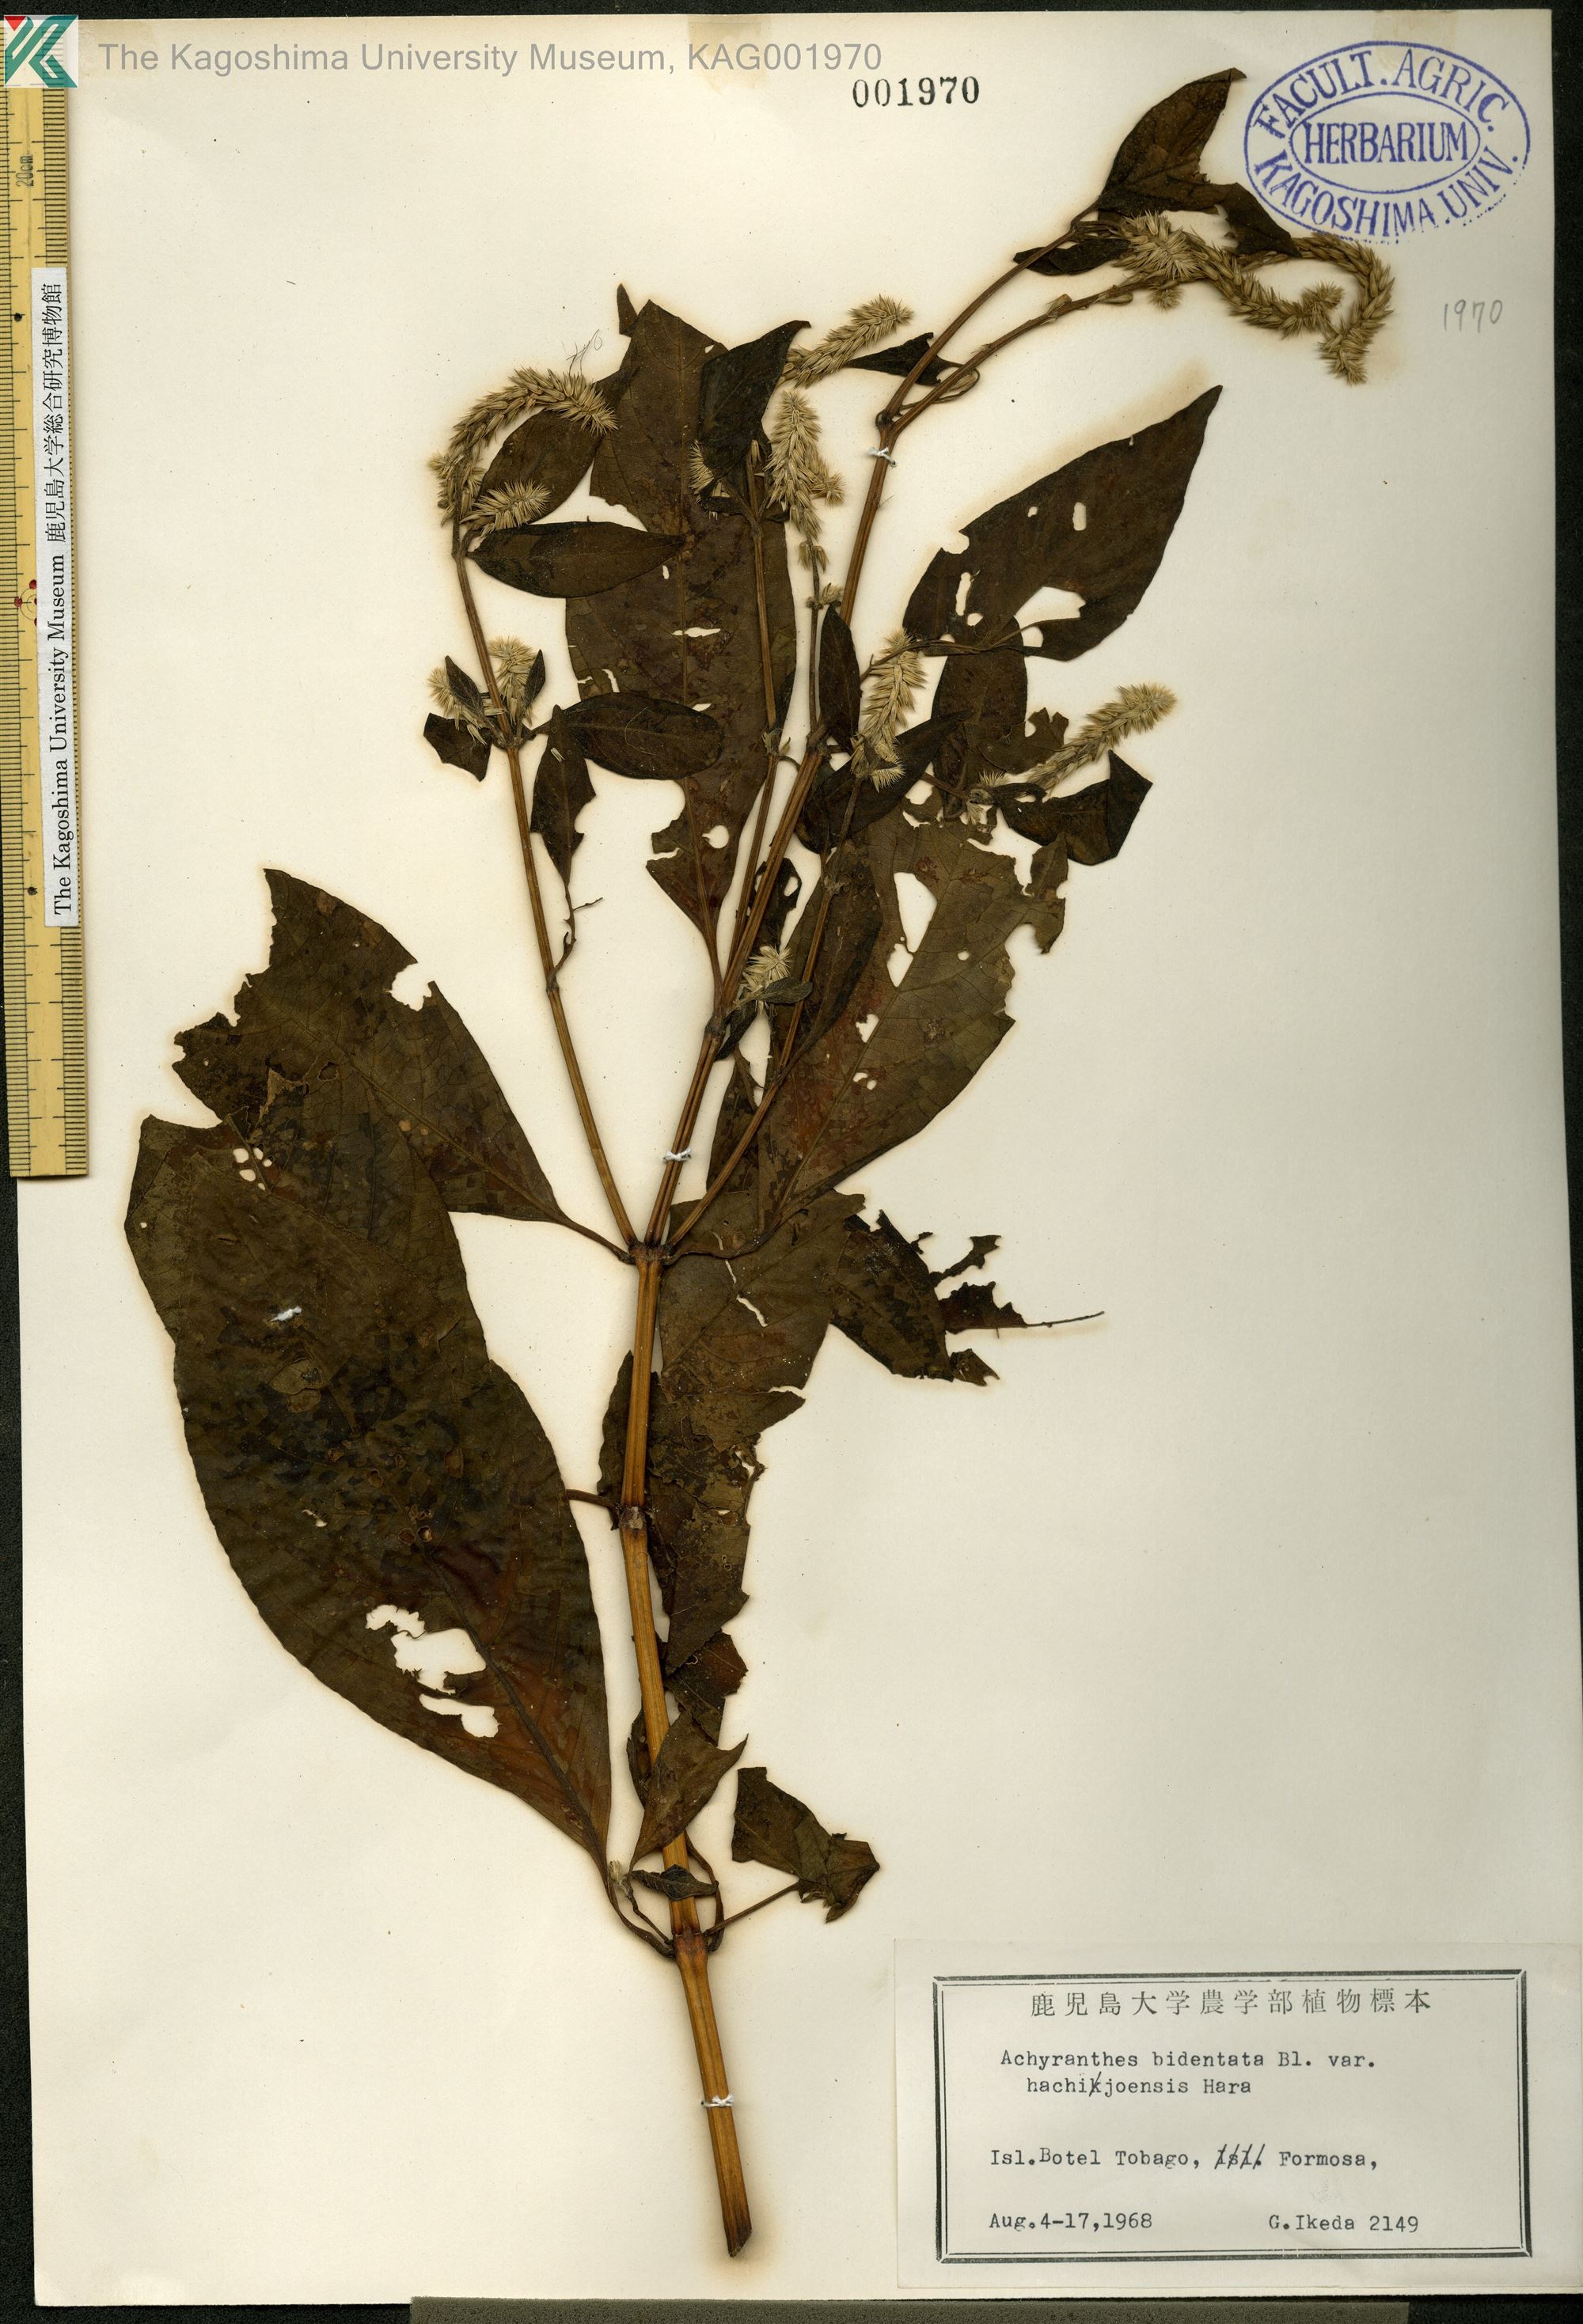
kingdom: Plantae
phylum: Tracheophyta
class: Magnoliopsida
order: Caryophyllales
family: Amaranthaceae
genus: Achyranthes
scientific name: Achyranthes bidentata
